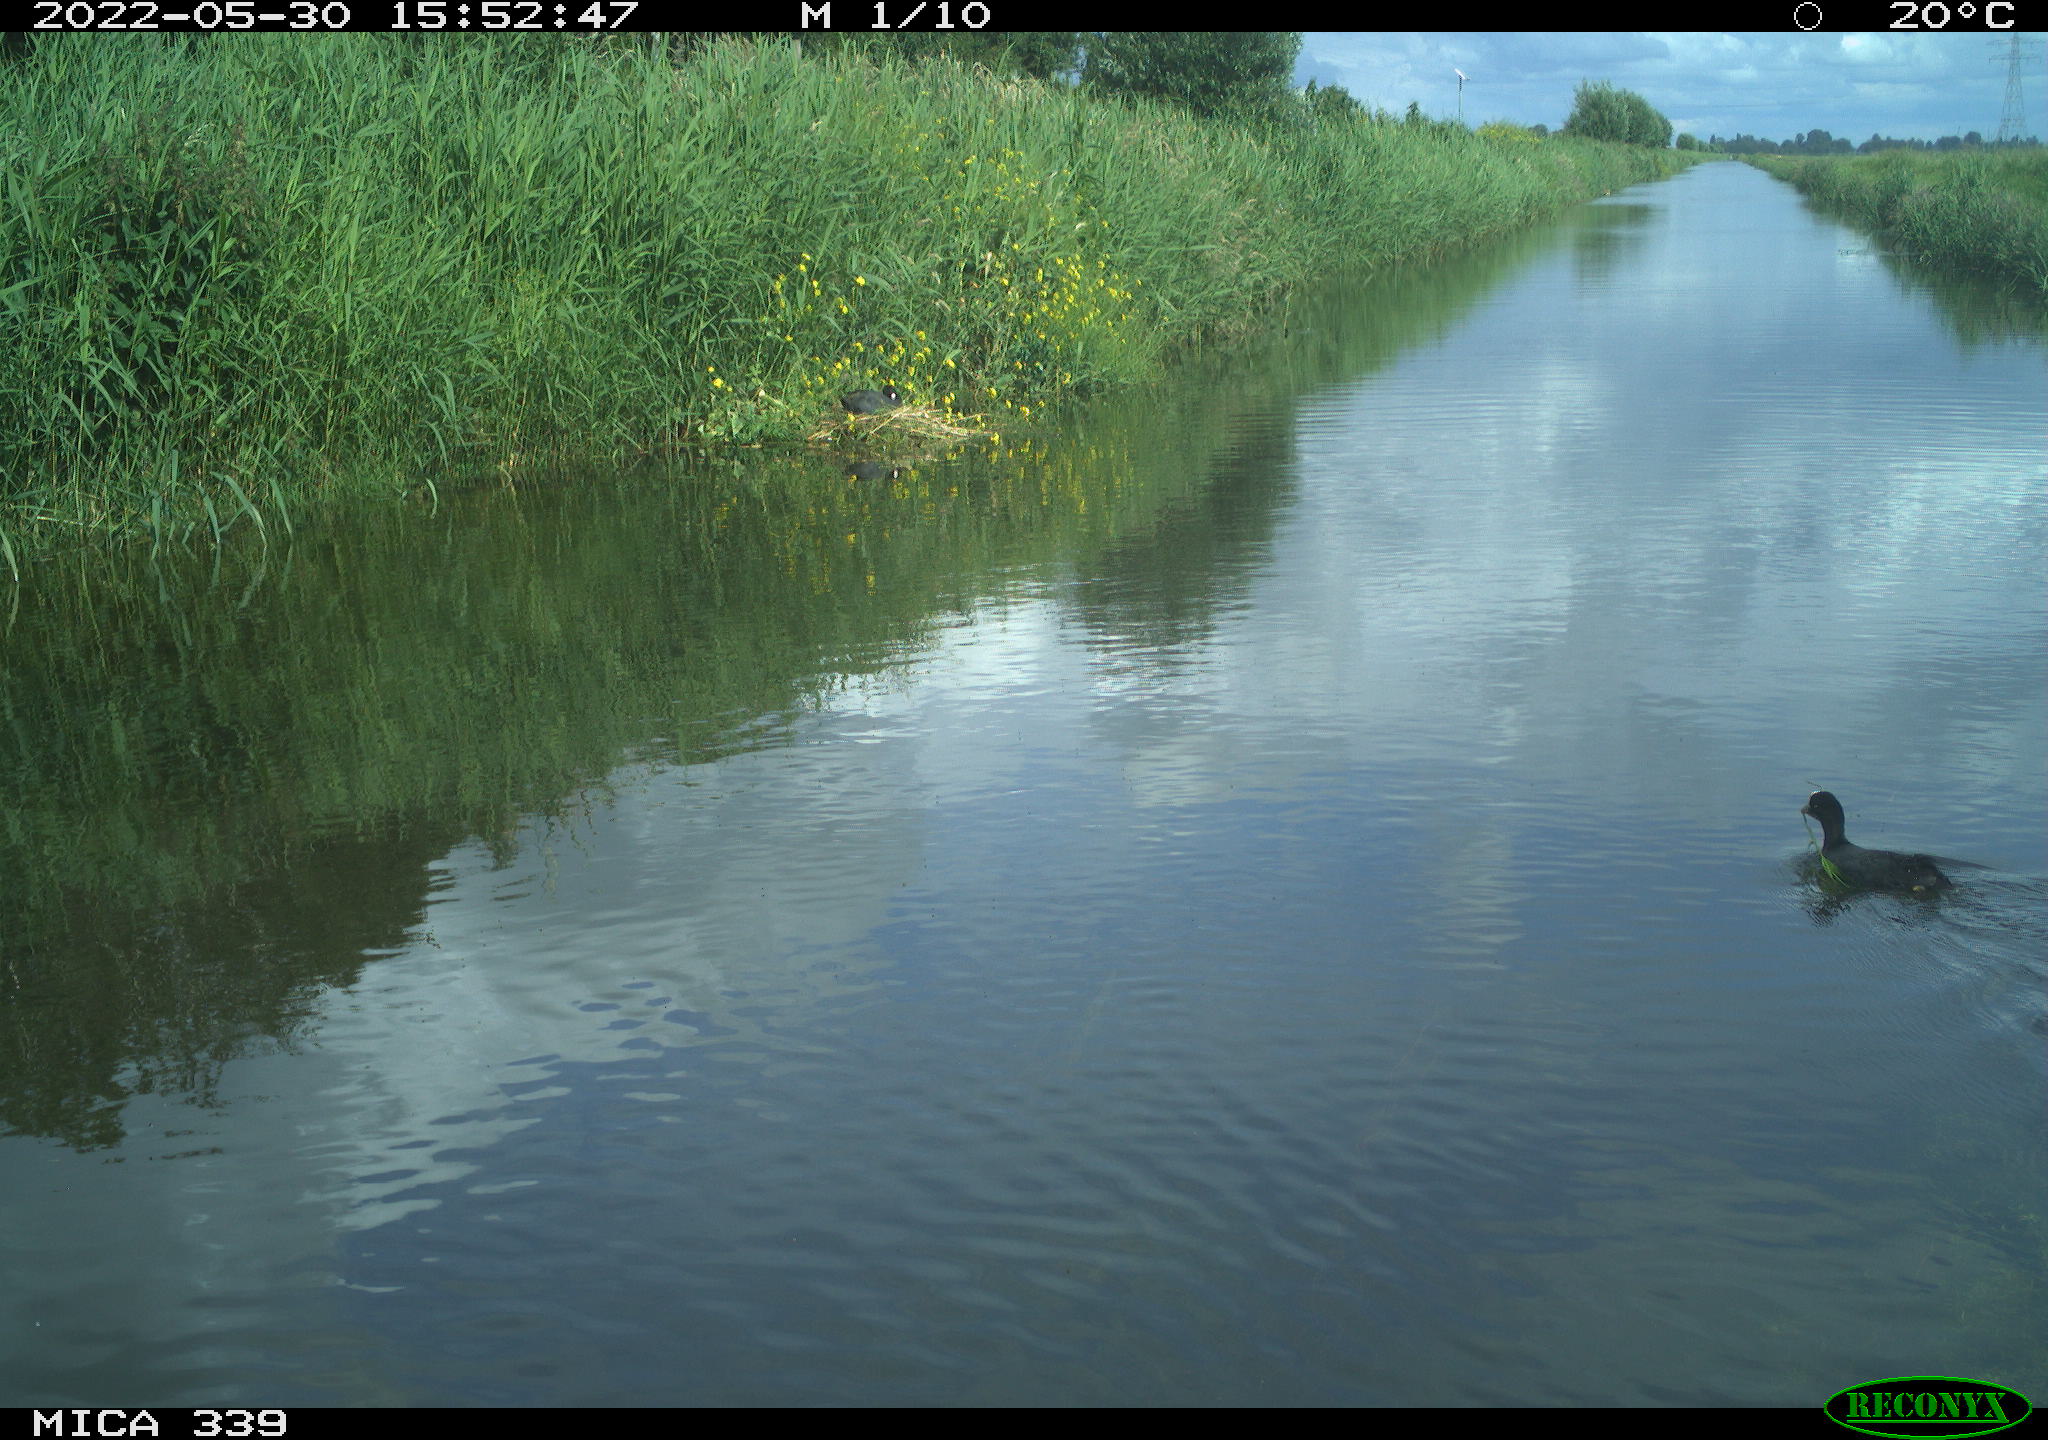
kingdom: Animalia
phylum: Chordata
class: Aves
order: Gruiformes
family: Rallidae
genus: Fulica
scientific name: Fulica atra
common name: Eurasian coot
